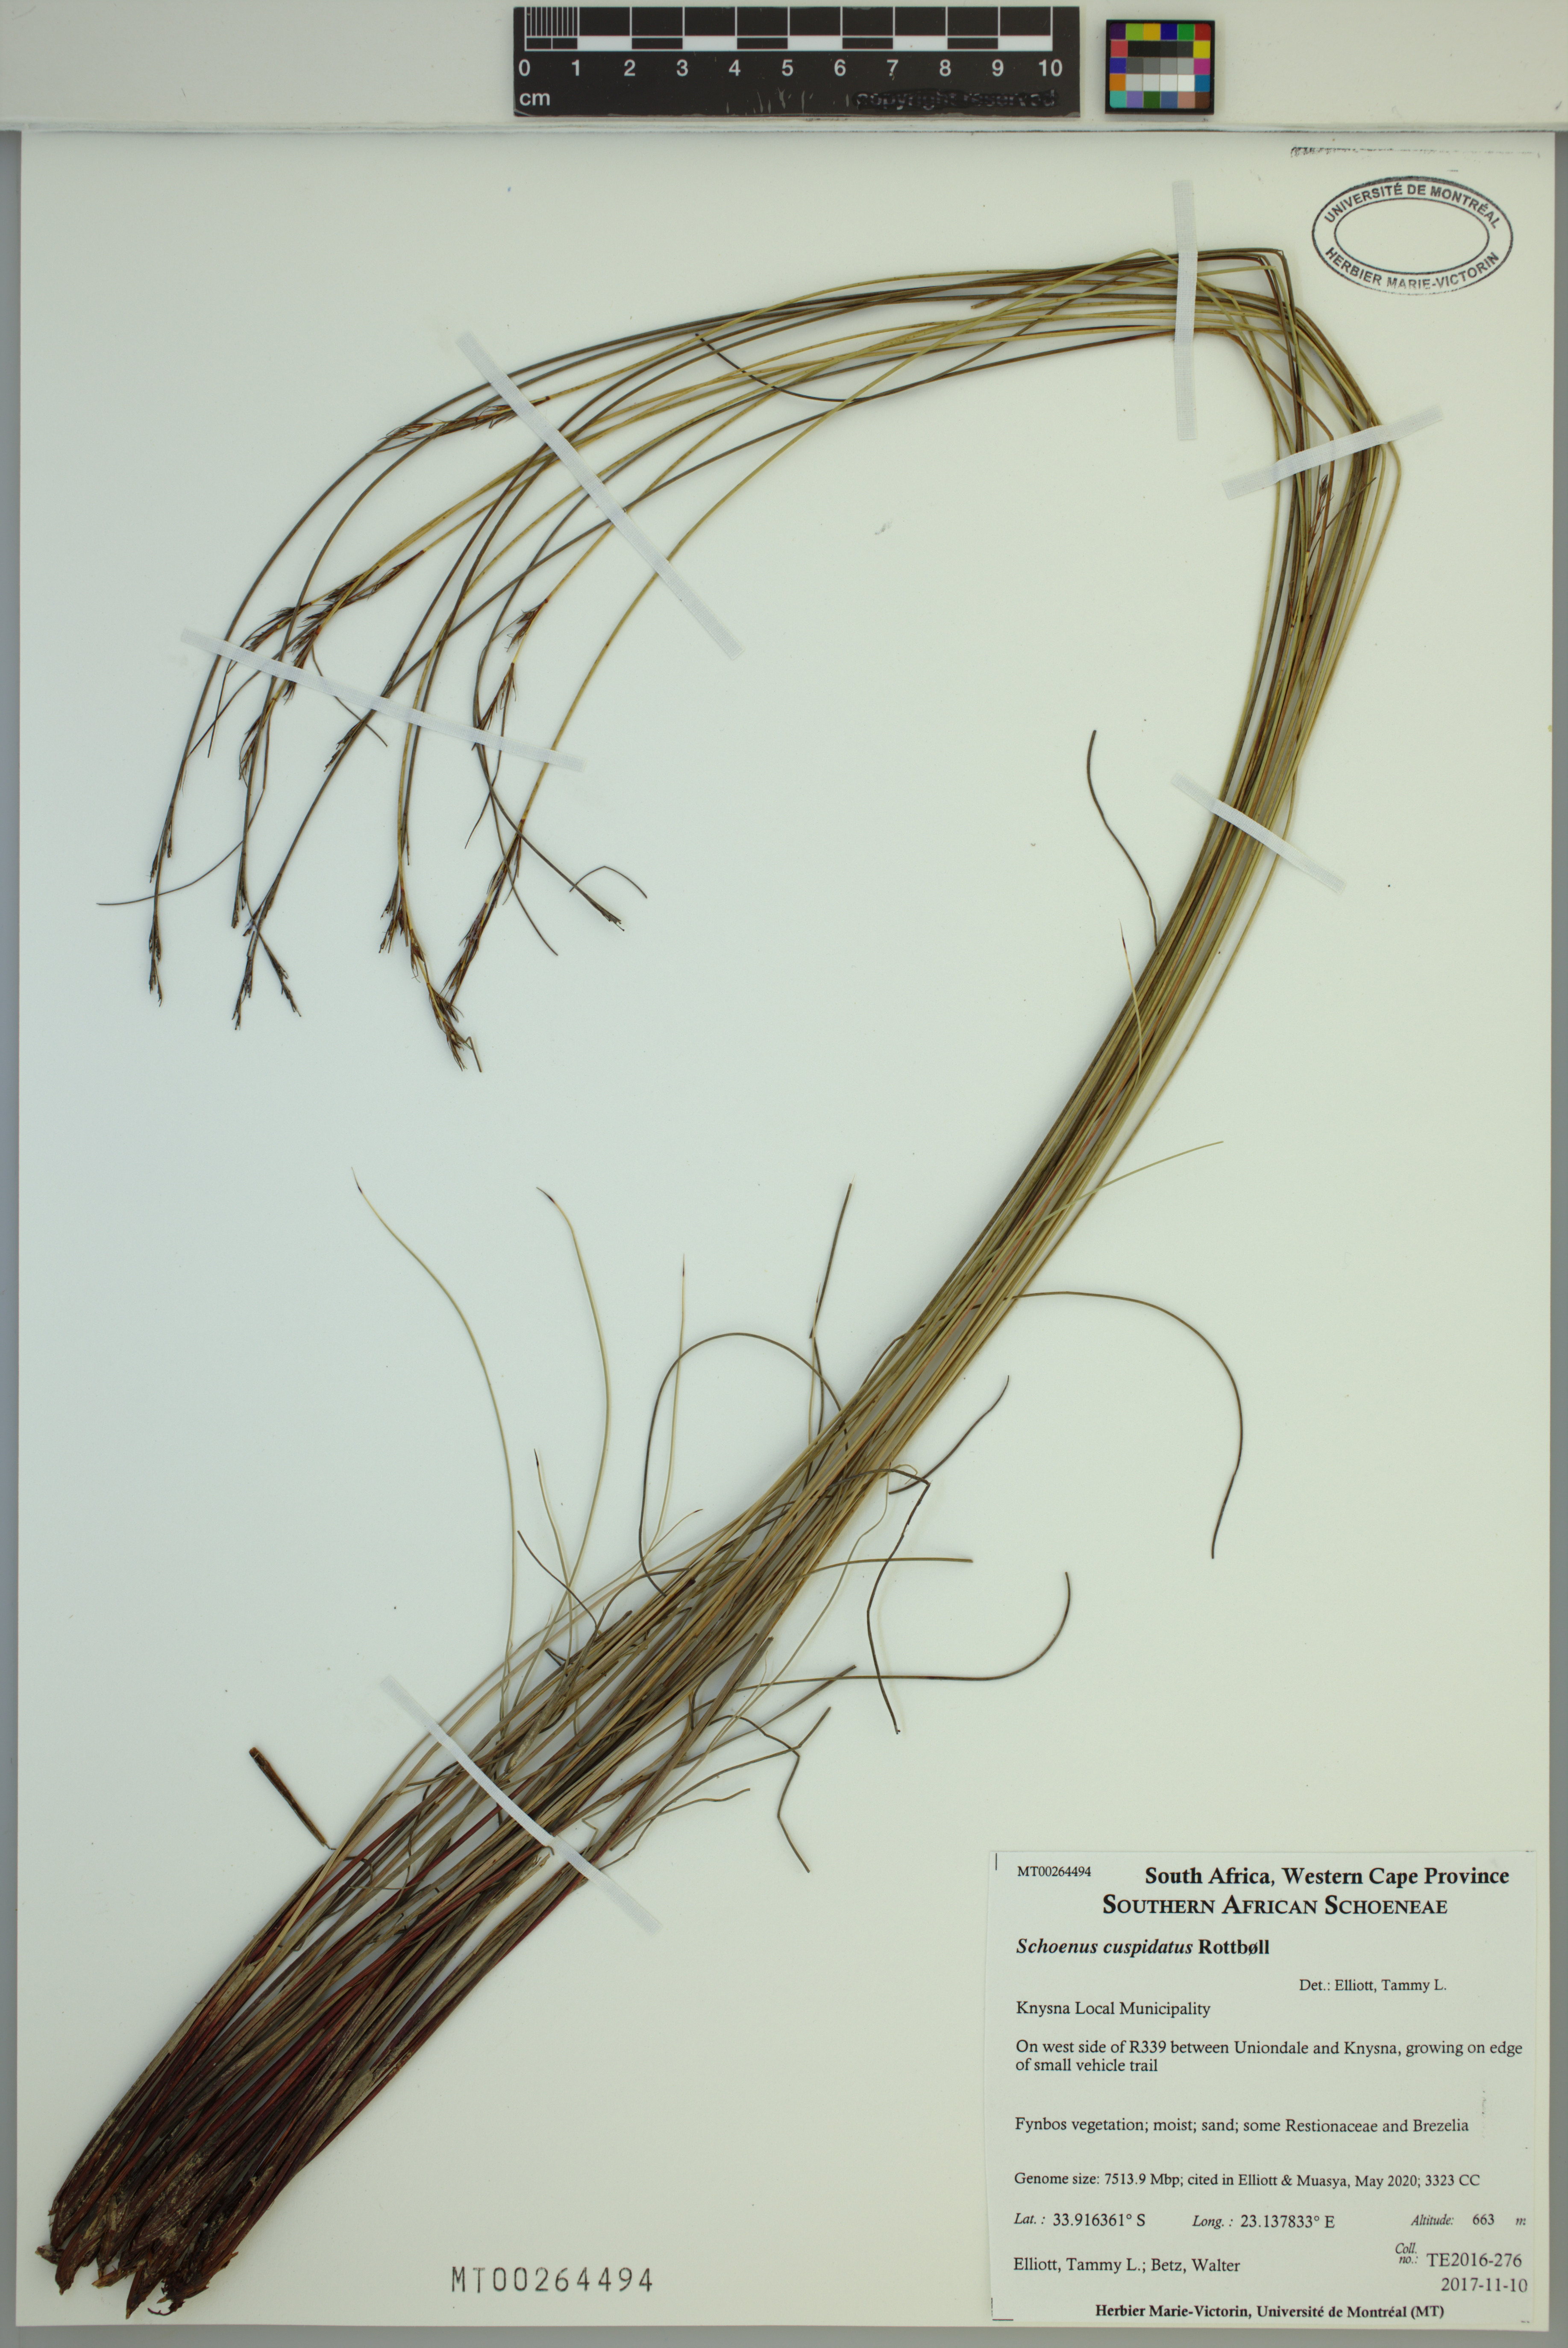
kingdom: Plantae
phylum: Tracheophyta
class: Liliopsida
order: Poales
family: Cyperaceae
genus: Schoenus
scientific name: Schoenus cuspidatus
